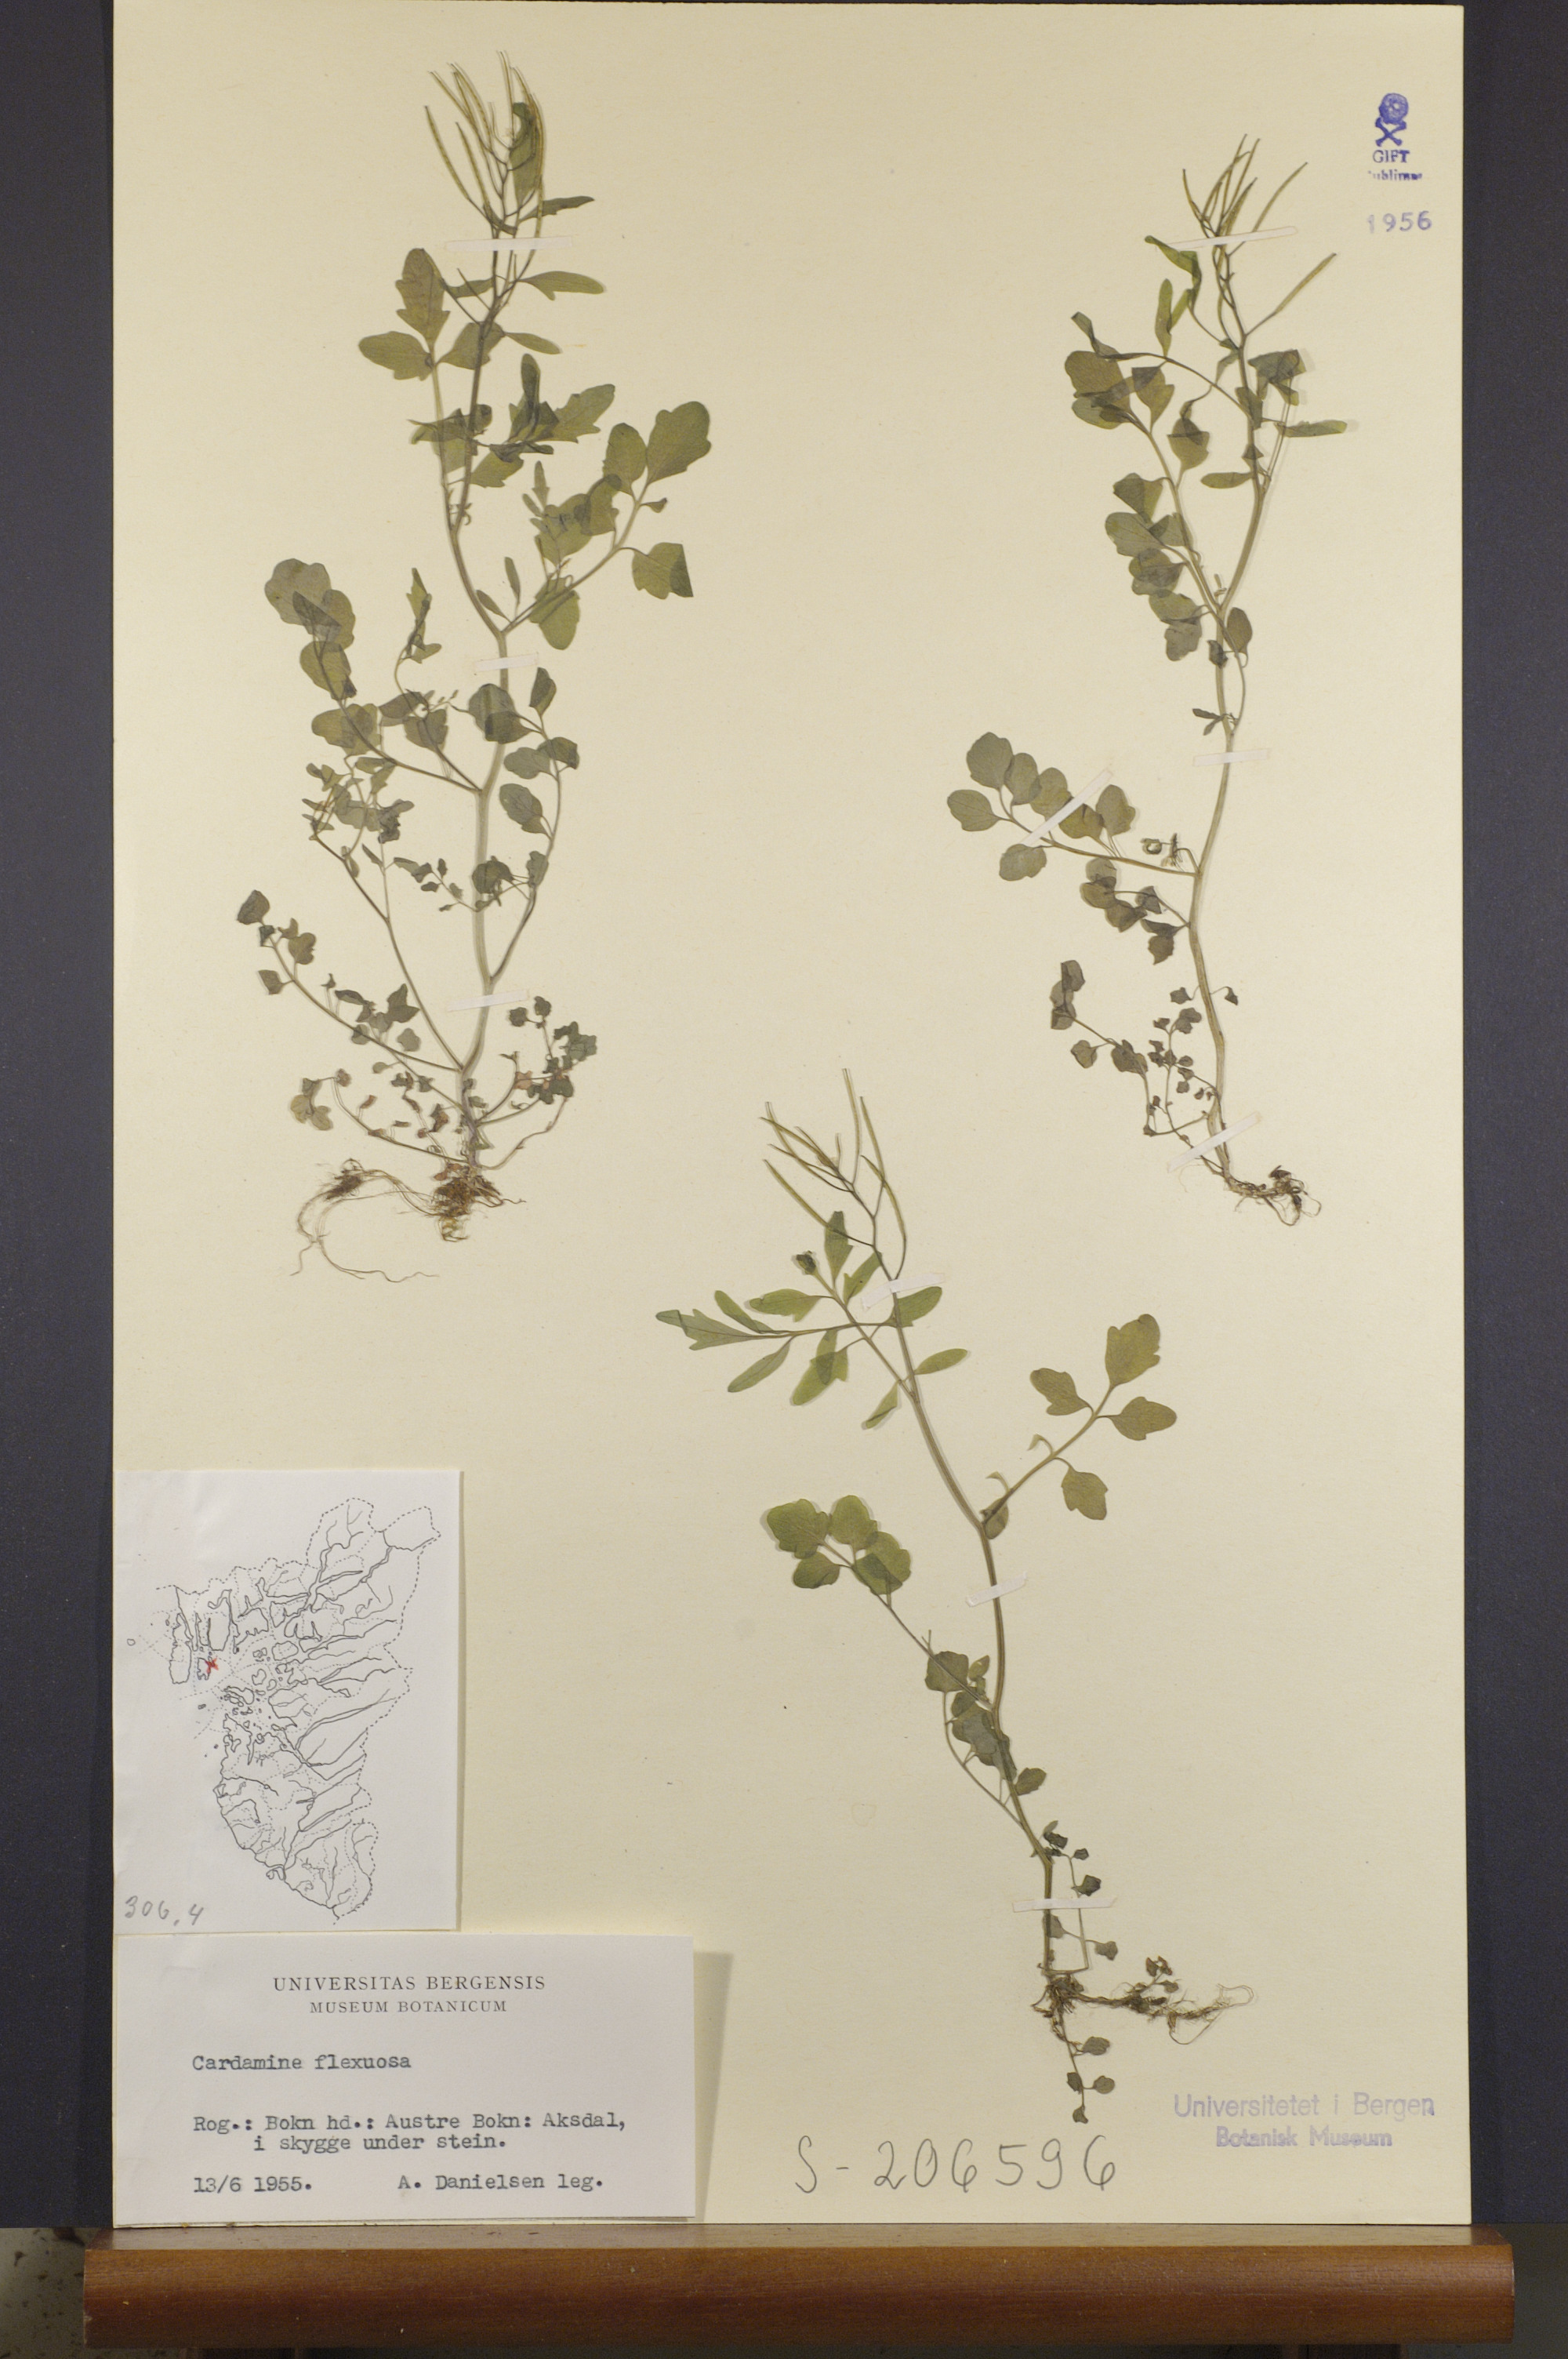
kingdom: Plantae
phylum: Tracheophyta
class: Magnoliopsida
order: Brassicales
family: Brassicaceae
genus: Cardamine
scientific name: Cardamine flexuosa
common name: Woodland bittercress
